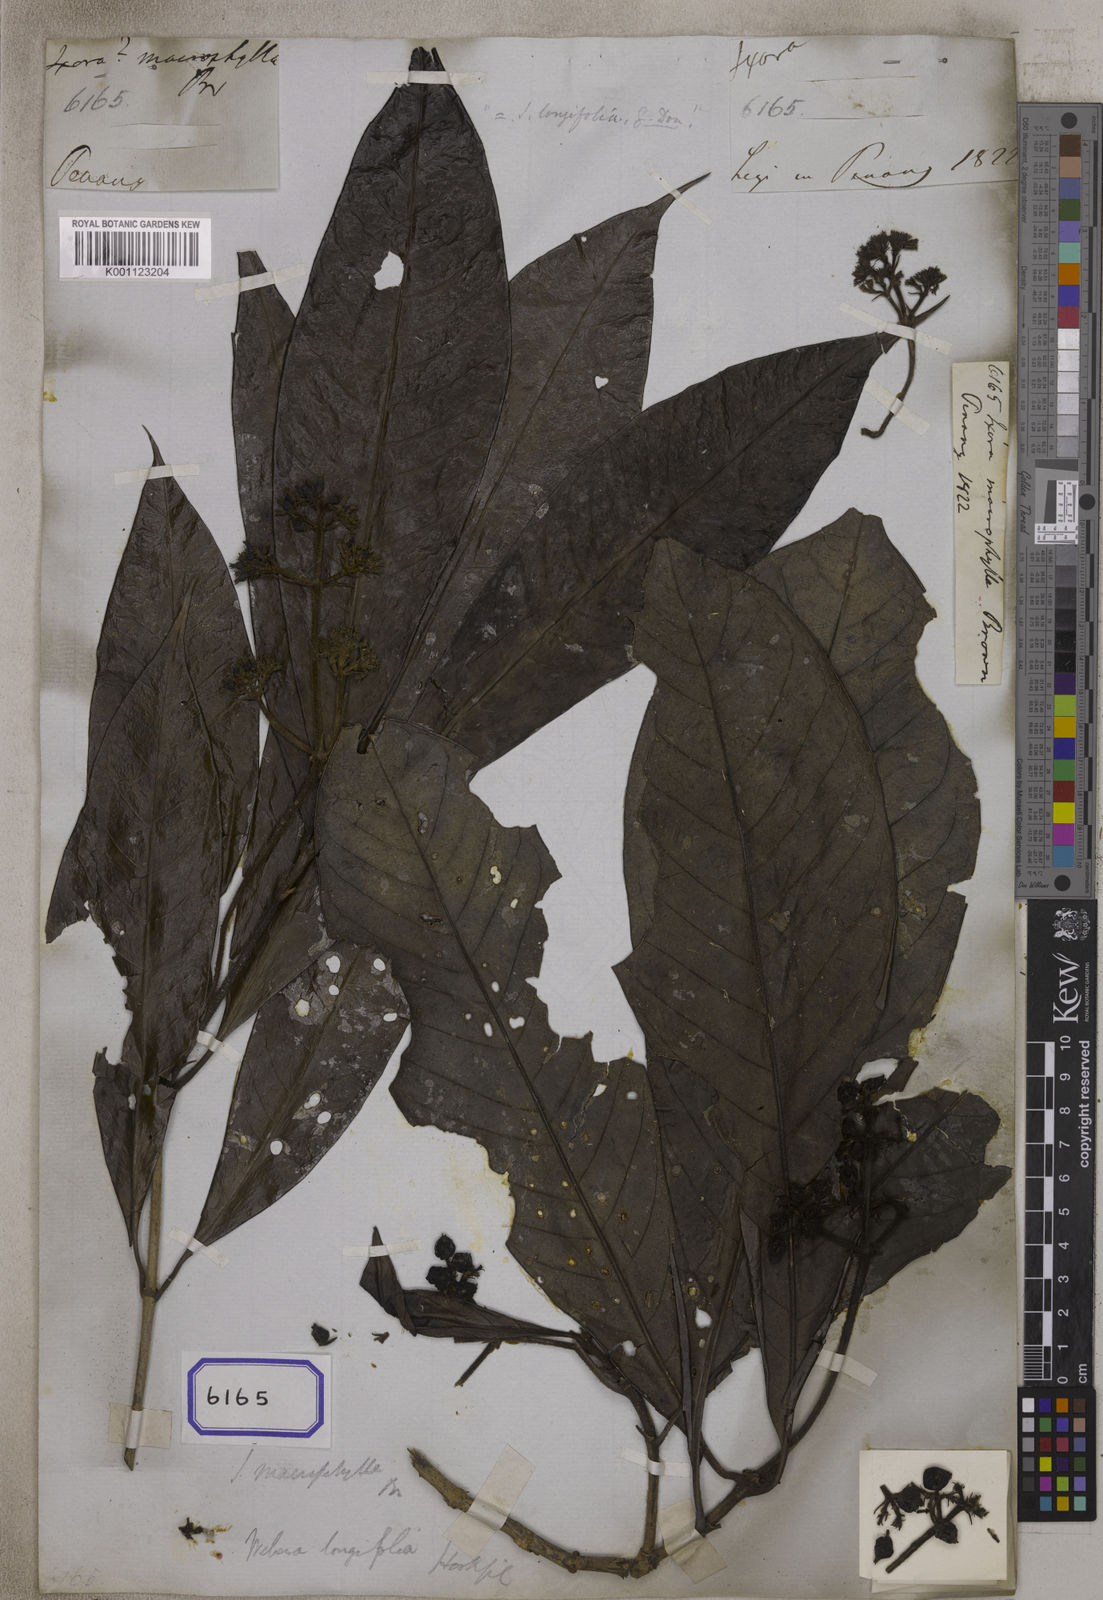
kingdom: Plantae
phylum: Tracheophyta
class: Magnoliopsida
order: Gentianales
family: Rubiaceae
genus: Ixora
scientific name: Ixora
